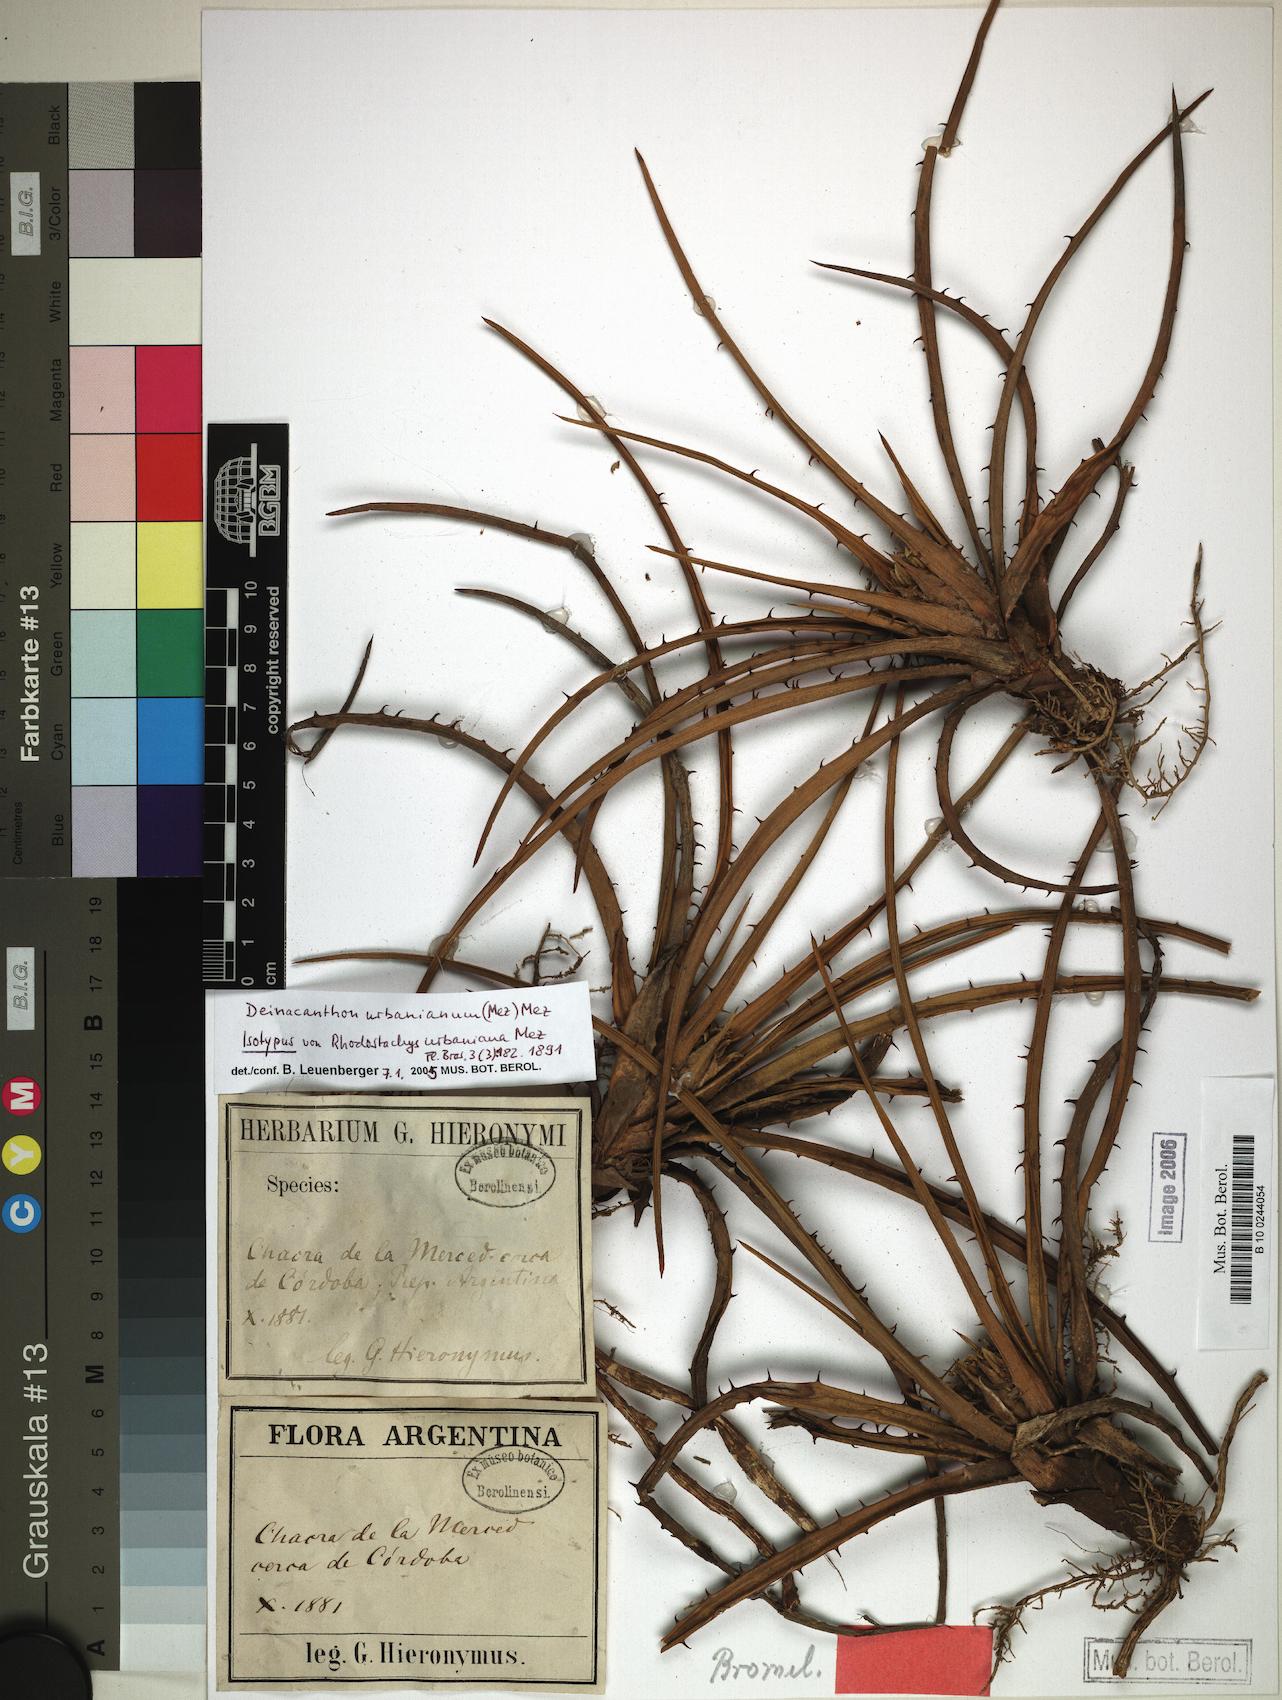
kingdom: Plantae
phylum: Tracheophyta
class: Liliopsida
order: Poales
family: Bromeliaceae
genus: Deinacanthon
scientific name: Deinacanthon urbanianum
